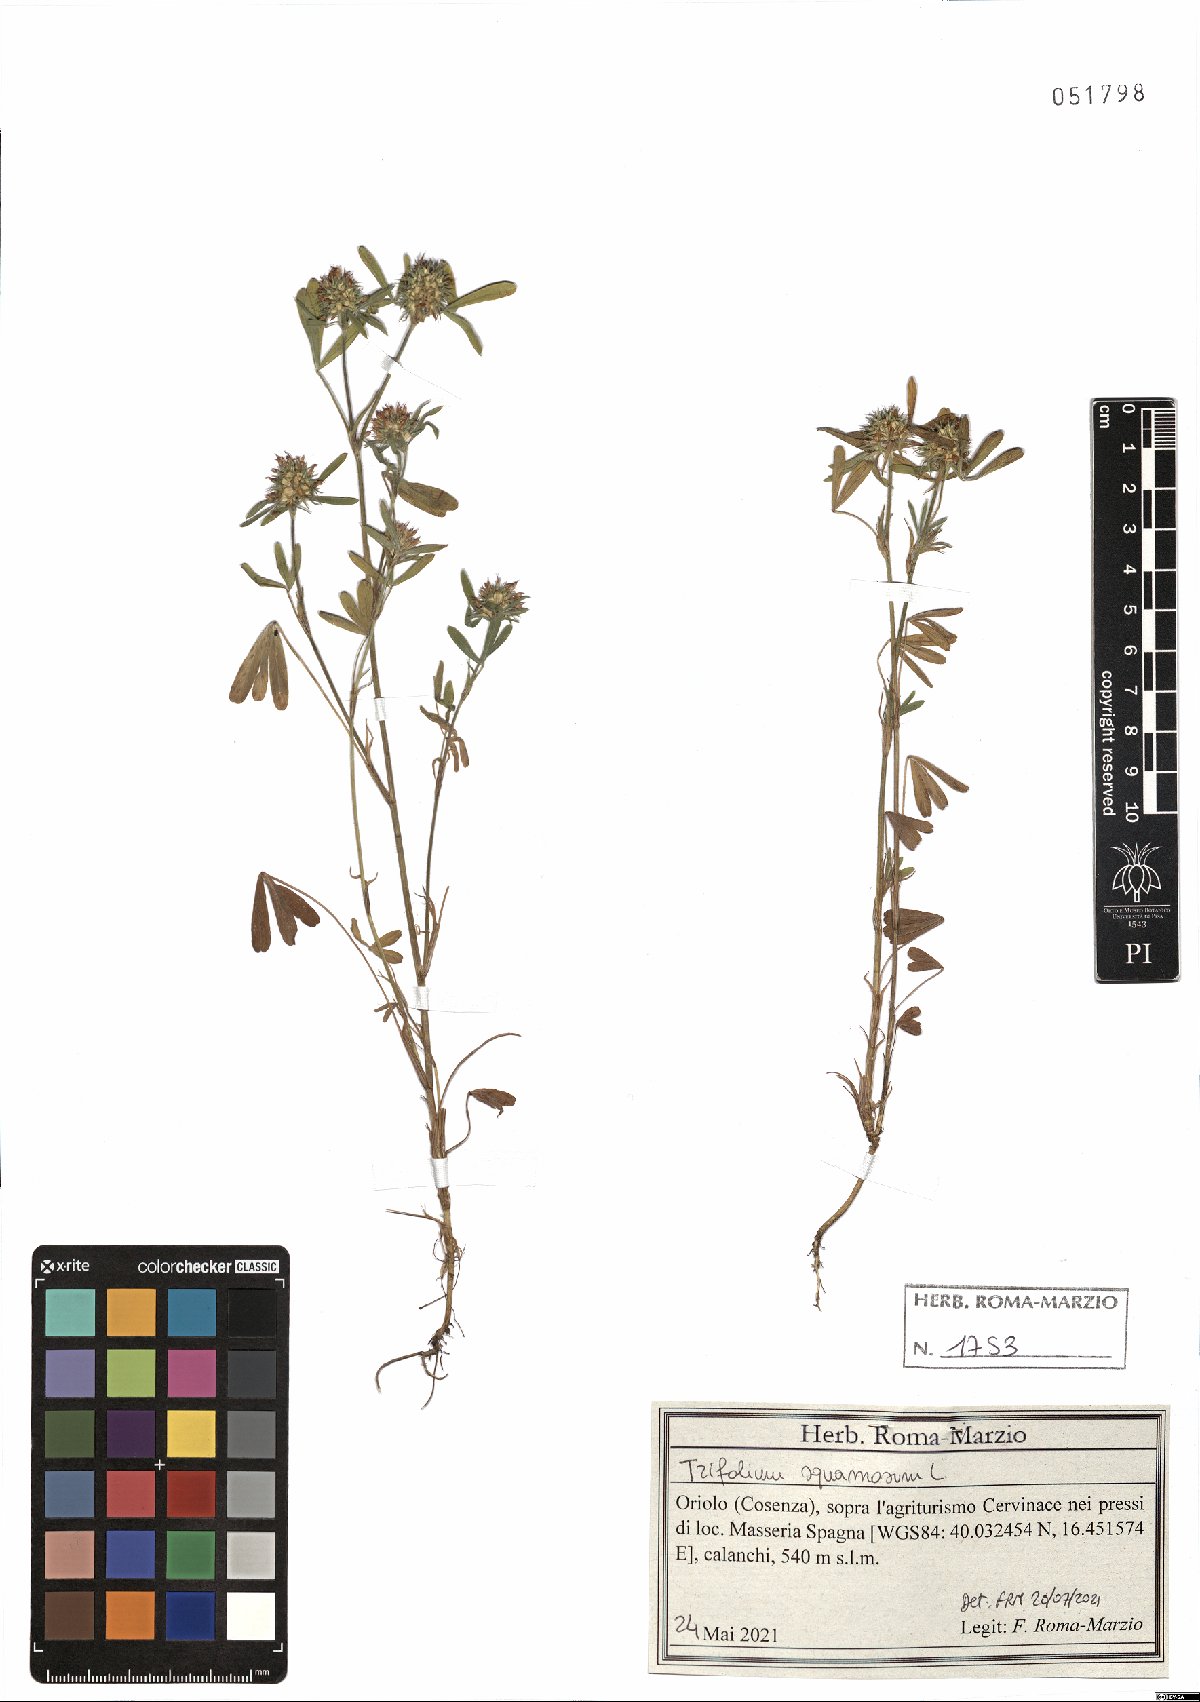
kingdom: Plantae
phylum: Tracheophyta
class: Magnoliopsida
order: Fabales
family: Fabaceae
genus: Trifolium
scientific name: Trifolium squamosum
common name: Sea clover
